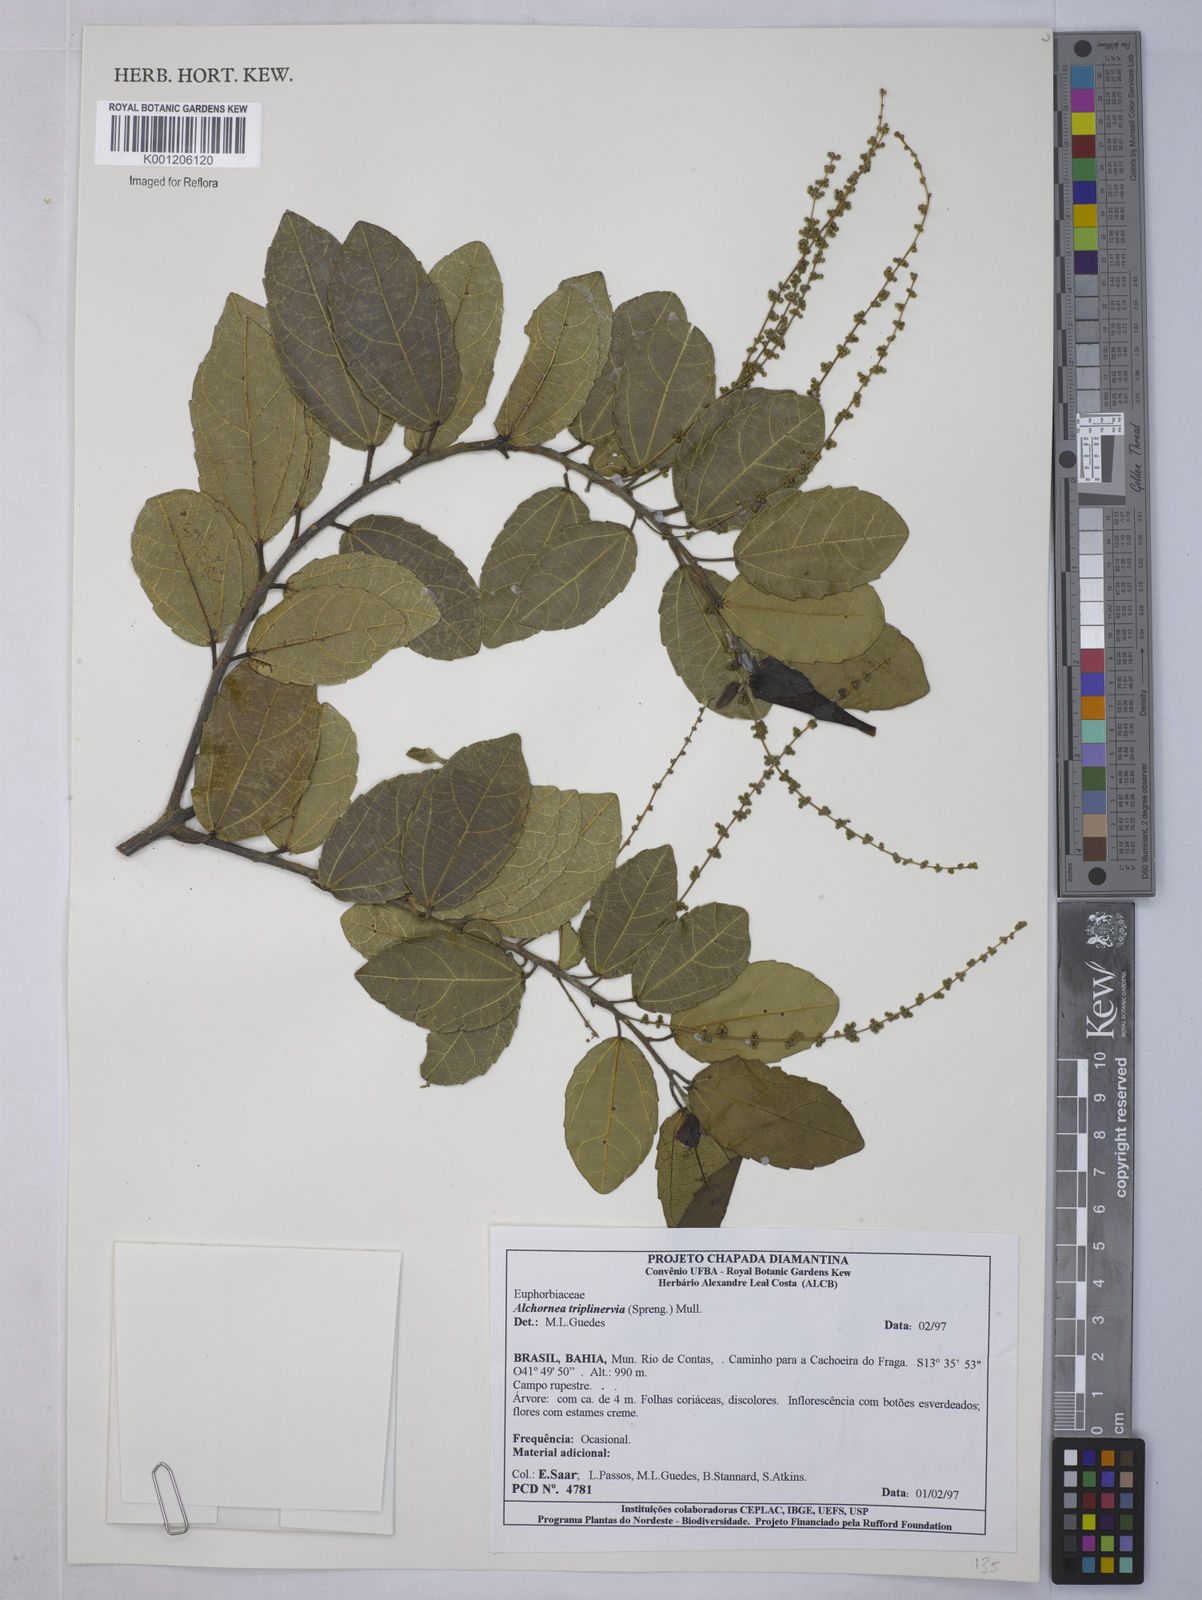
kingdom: Plantae
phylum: Tracheophyta
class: Magnoliopsida
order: Malpighiales
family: Euphorbiaceae
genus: Alchornea
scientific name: Alchornea
